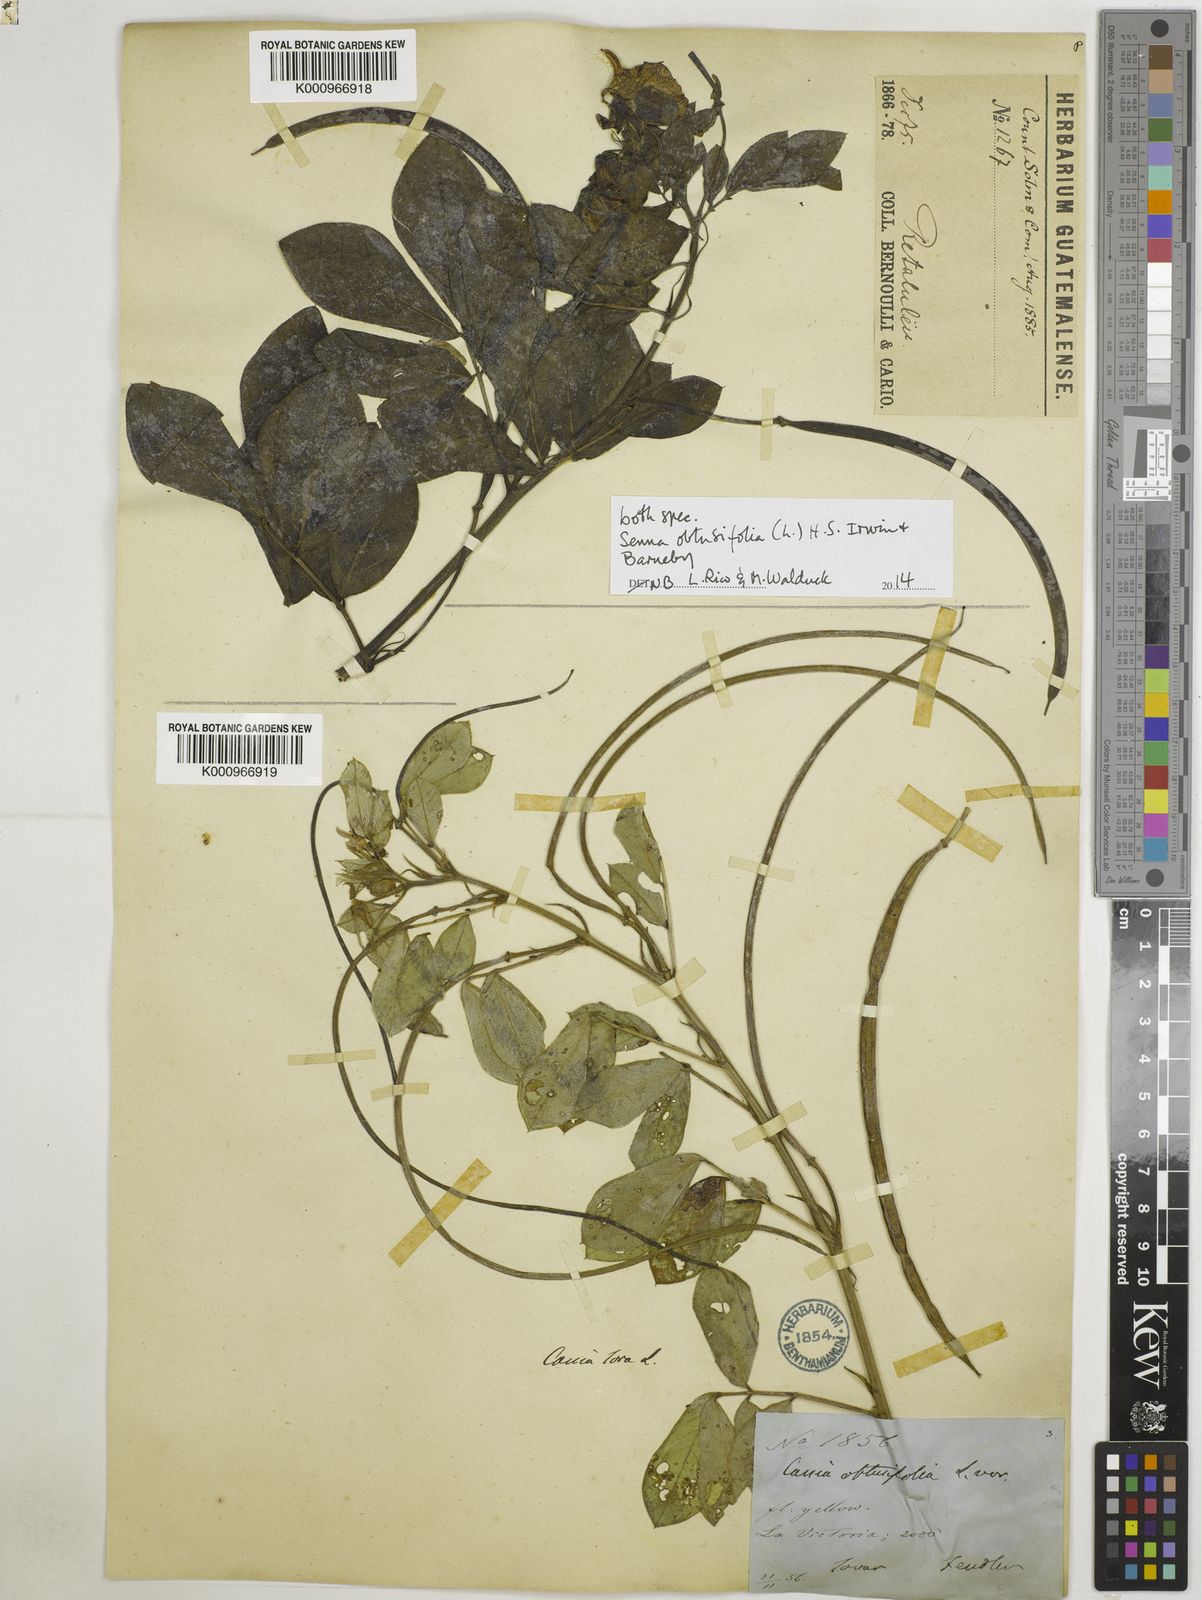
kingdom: Plantae
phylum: Tracheophyta
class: Magnoliopsida
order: Fabales
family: Fabaceae
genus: Senna
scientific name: Senna obtusifolia
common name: Java-bean
